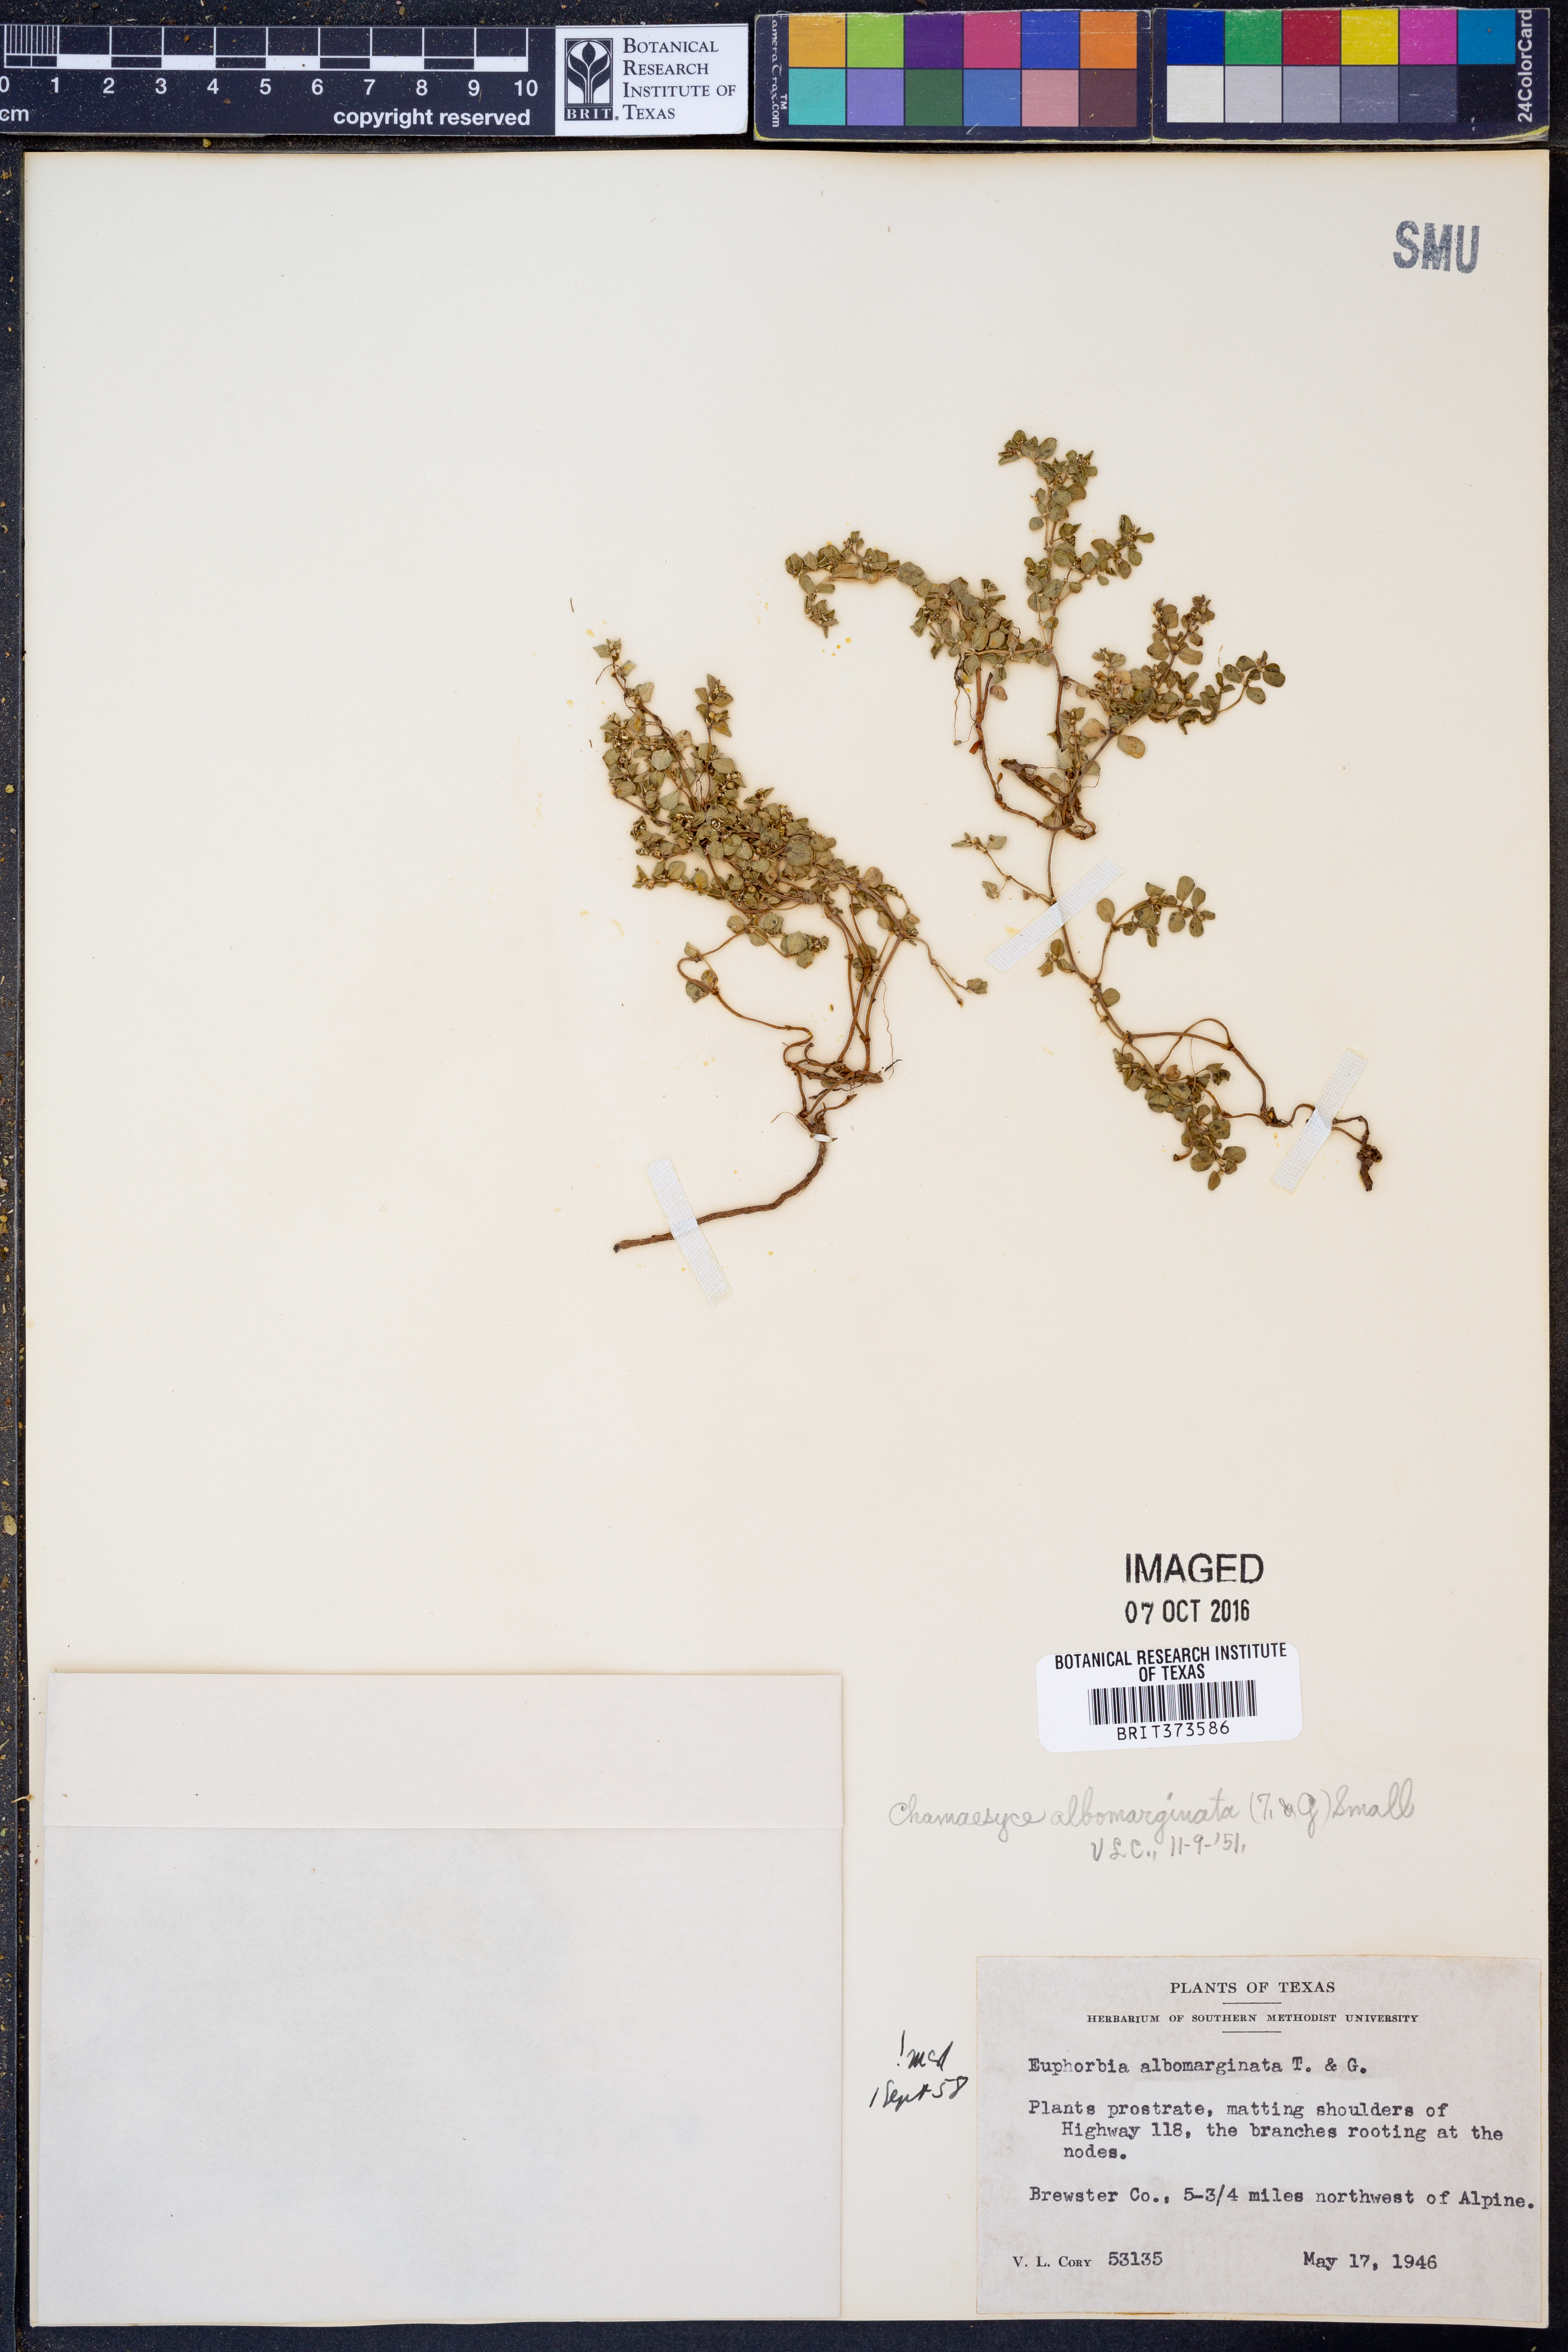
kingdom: Plantae
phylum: Tracheophyta
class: Magnoliopsida
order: Malpighiales
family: Euphorbiaceae
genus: Euphorbia
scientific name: Euphorbia albomarginata
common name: Whitemargin sandmat
